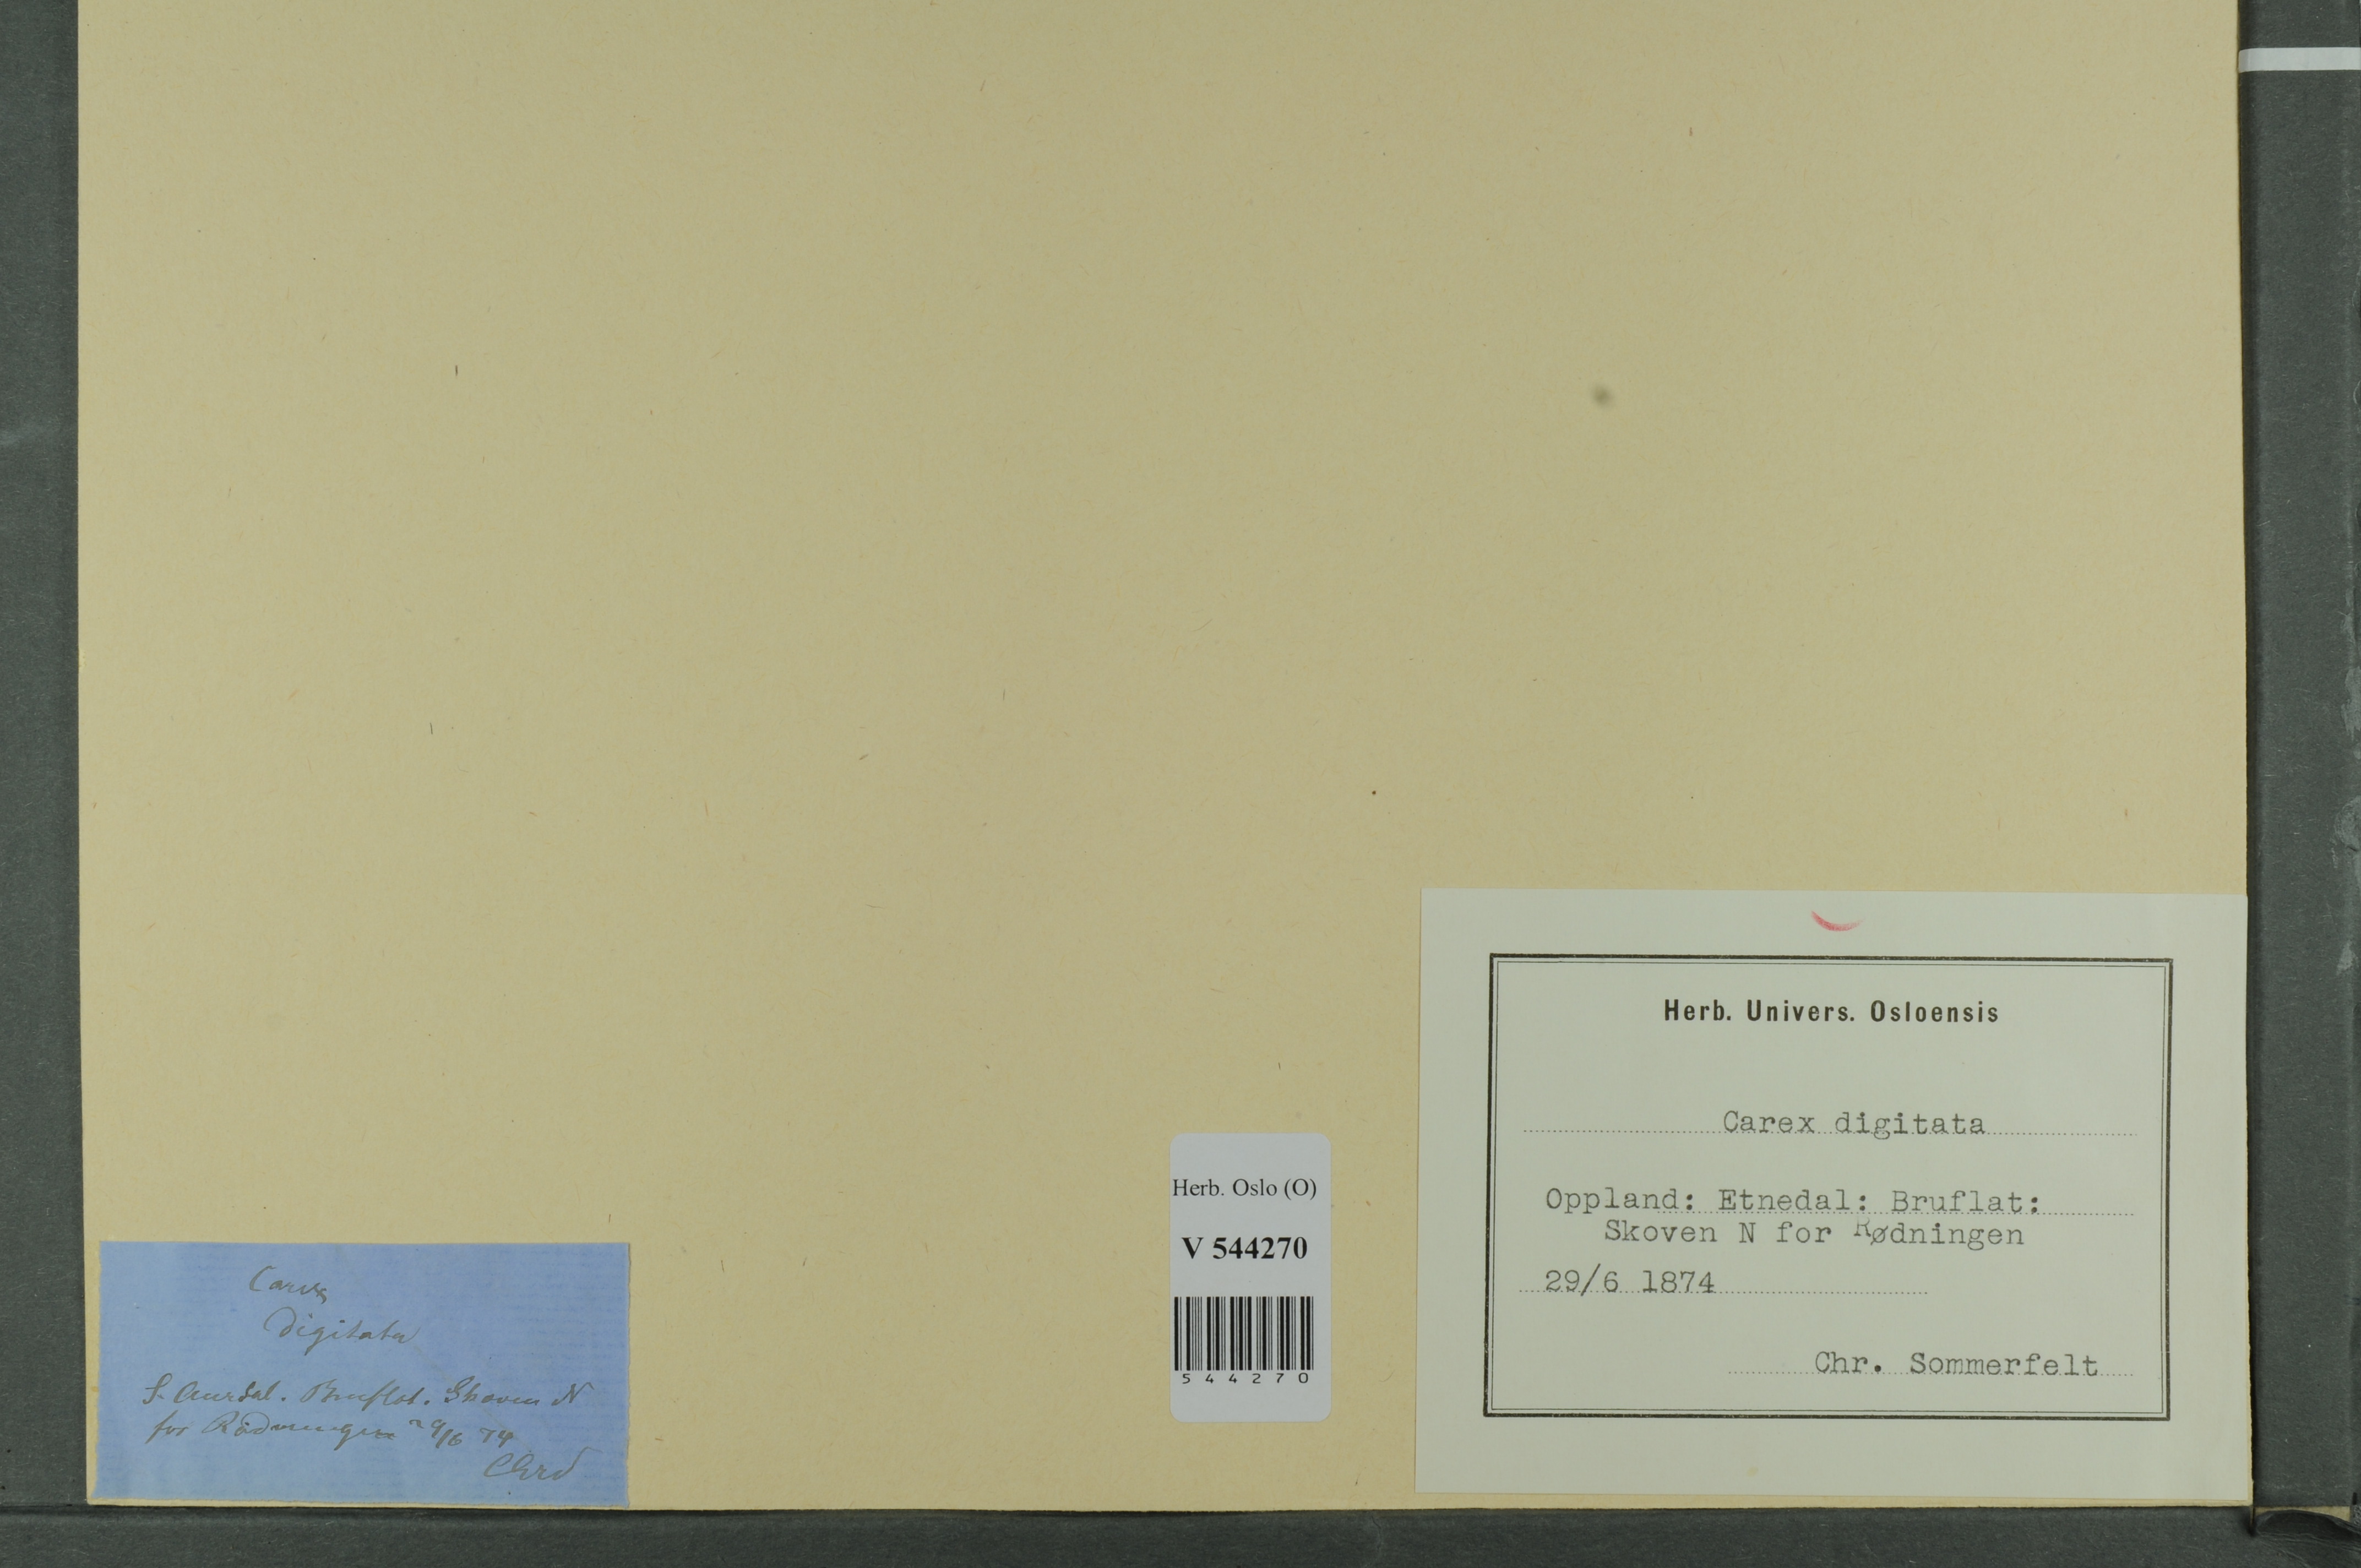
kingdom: Plantae
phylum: Tracheophyta
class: Liliopsida
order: Poales
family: Cyperaceae
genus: Carex
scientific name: Carex digitata
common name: Fingered sedge
